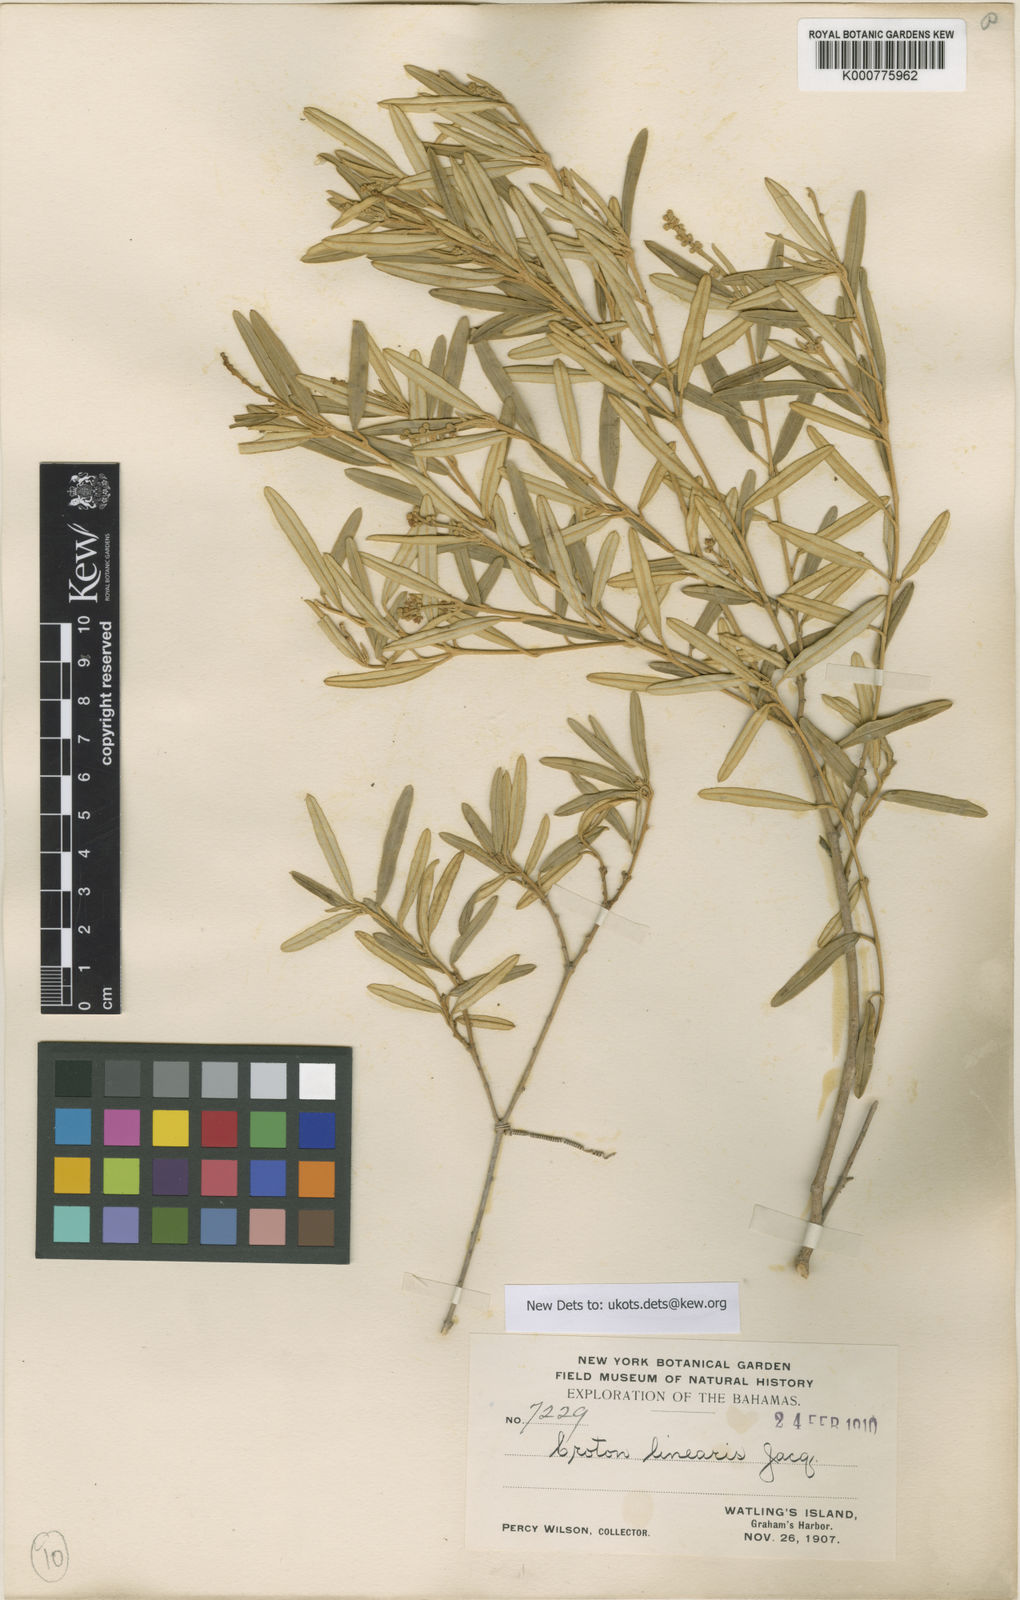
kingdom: Plantae
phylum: Tracheophyta
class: Magnoliopsida
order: Malpighiales
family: Euphorbiaceae
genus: Croton
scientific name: Croton linearis
